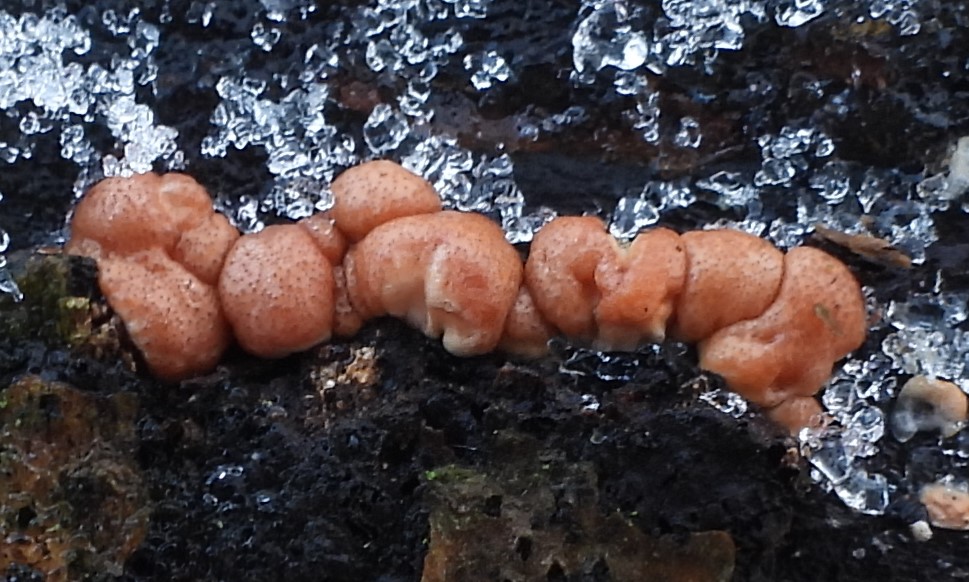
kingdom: Fungi
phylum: Ascomycota
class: Sordariomycetes
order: Hypocreales
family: Hypocreaceae
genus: Trichoderma
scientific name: Trichoderma europaeum
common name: rosabrun kødkerne
